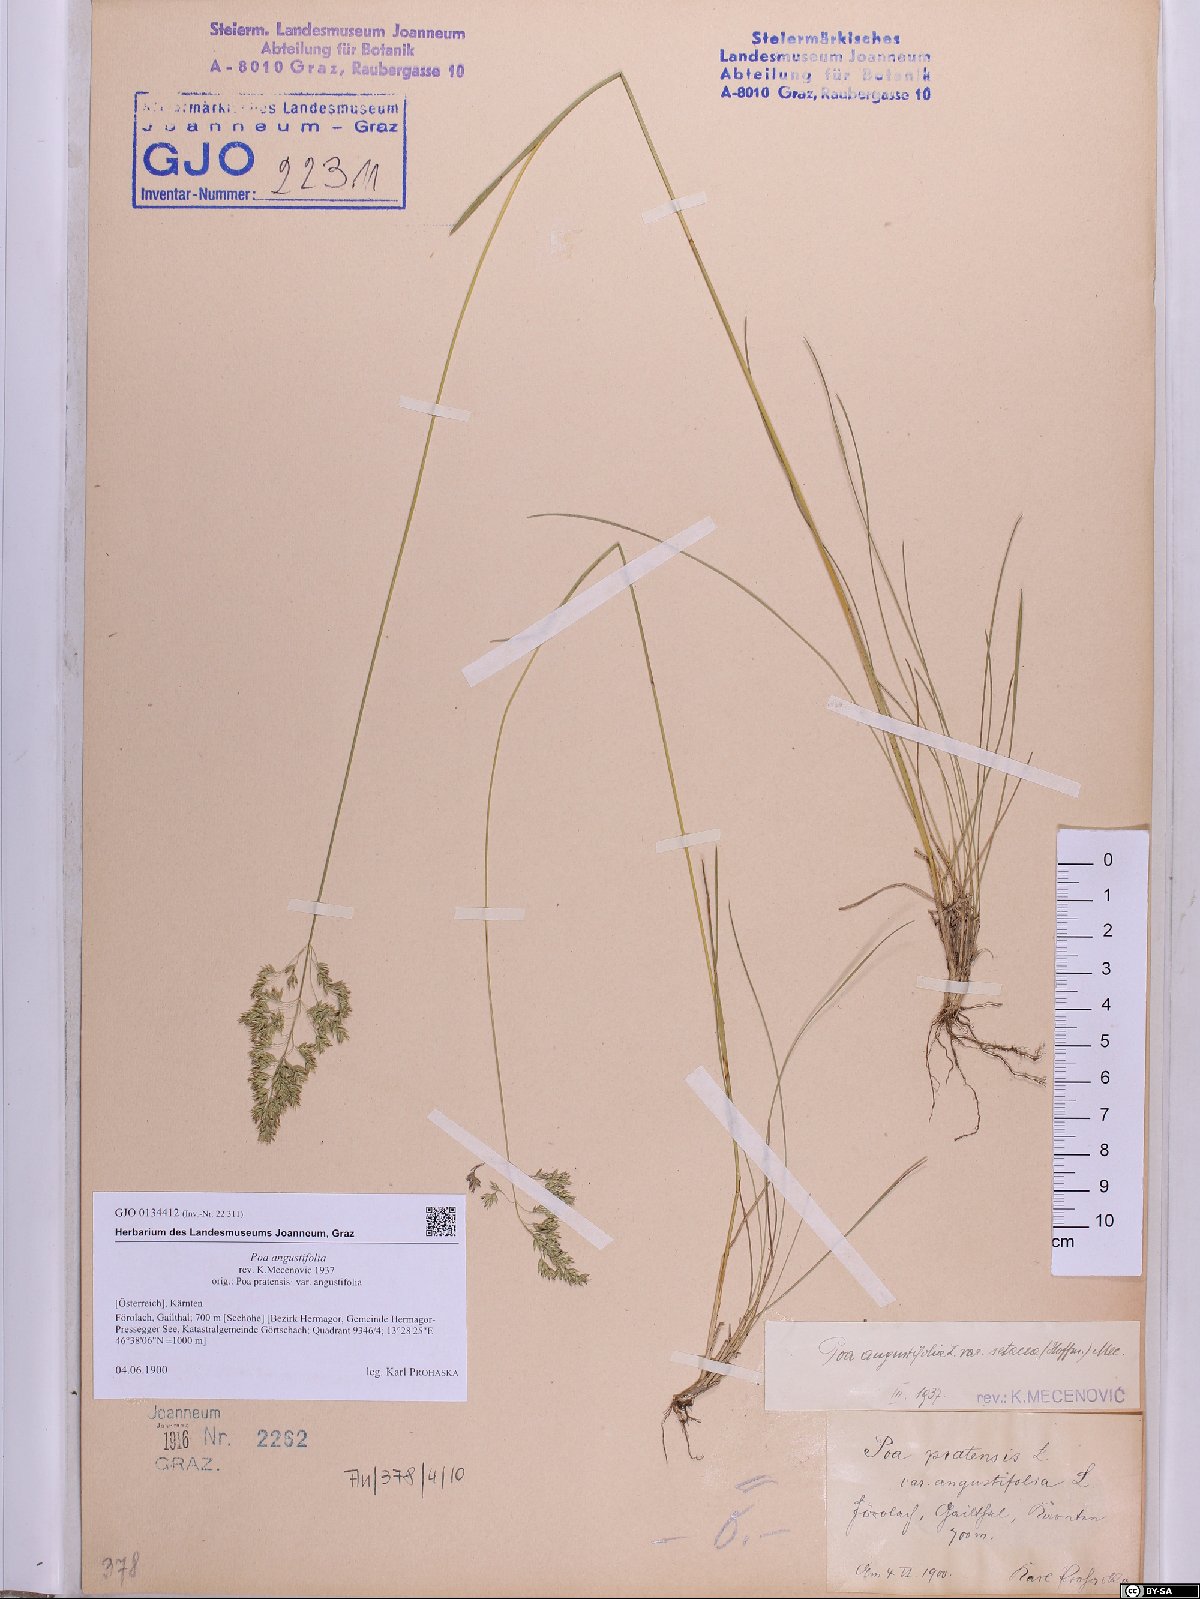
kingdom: Plantae
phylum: Tracheophyta
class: Liliopsida
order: Poales
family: Poaceae
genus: Poa
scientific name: Poa angustifolia
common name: Narrow-leaved meadow-grass
